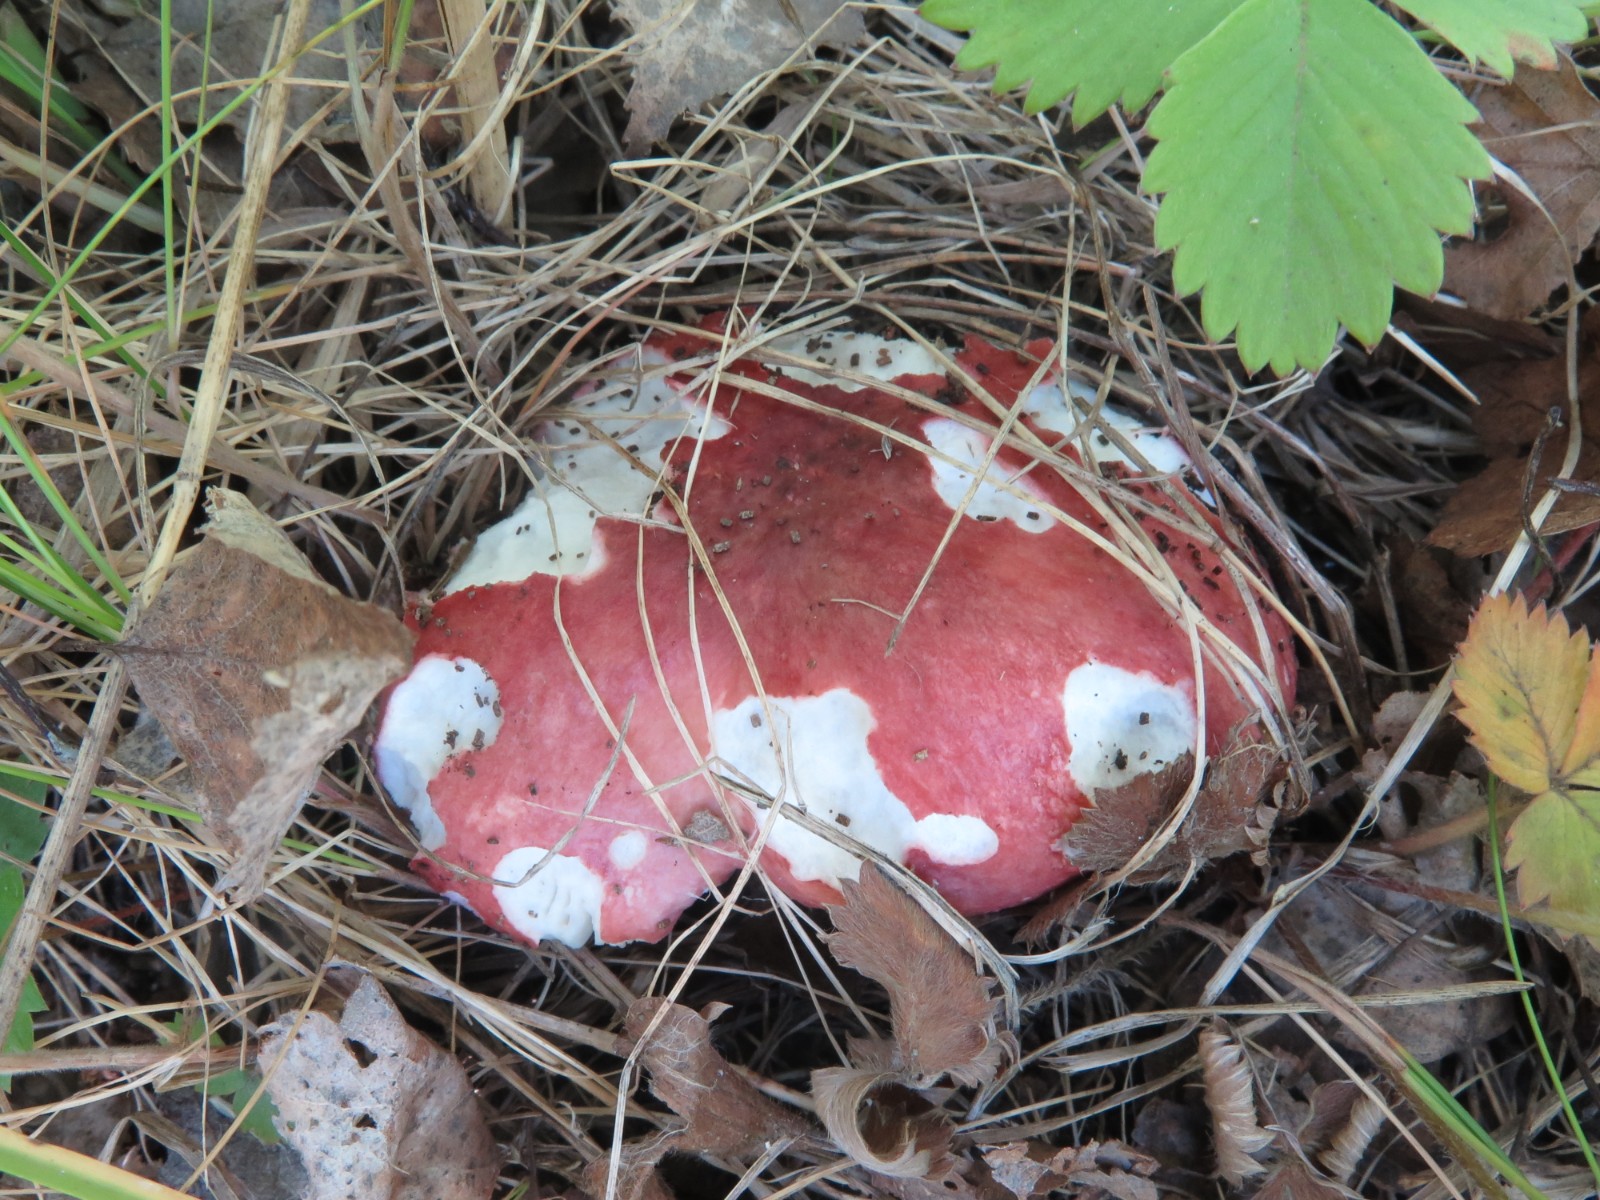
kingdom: Fungi
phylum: Basidiomycota
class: Agaricomycetes
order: Russulales
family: Russulaceae
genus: Russula
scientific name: Russula depallens
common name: falmende skørhat
